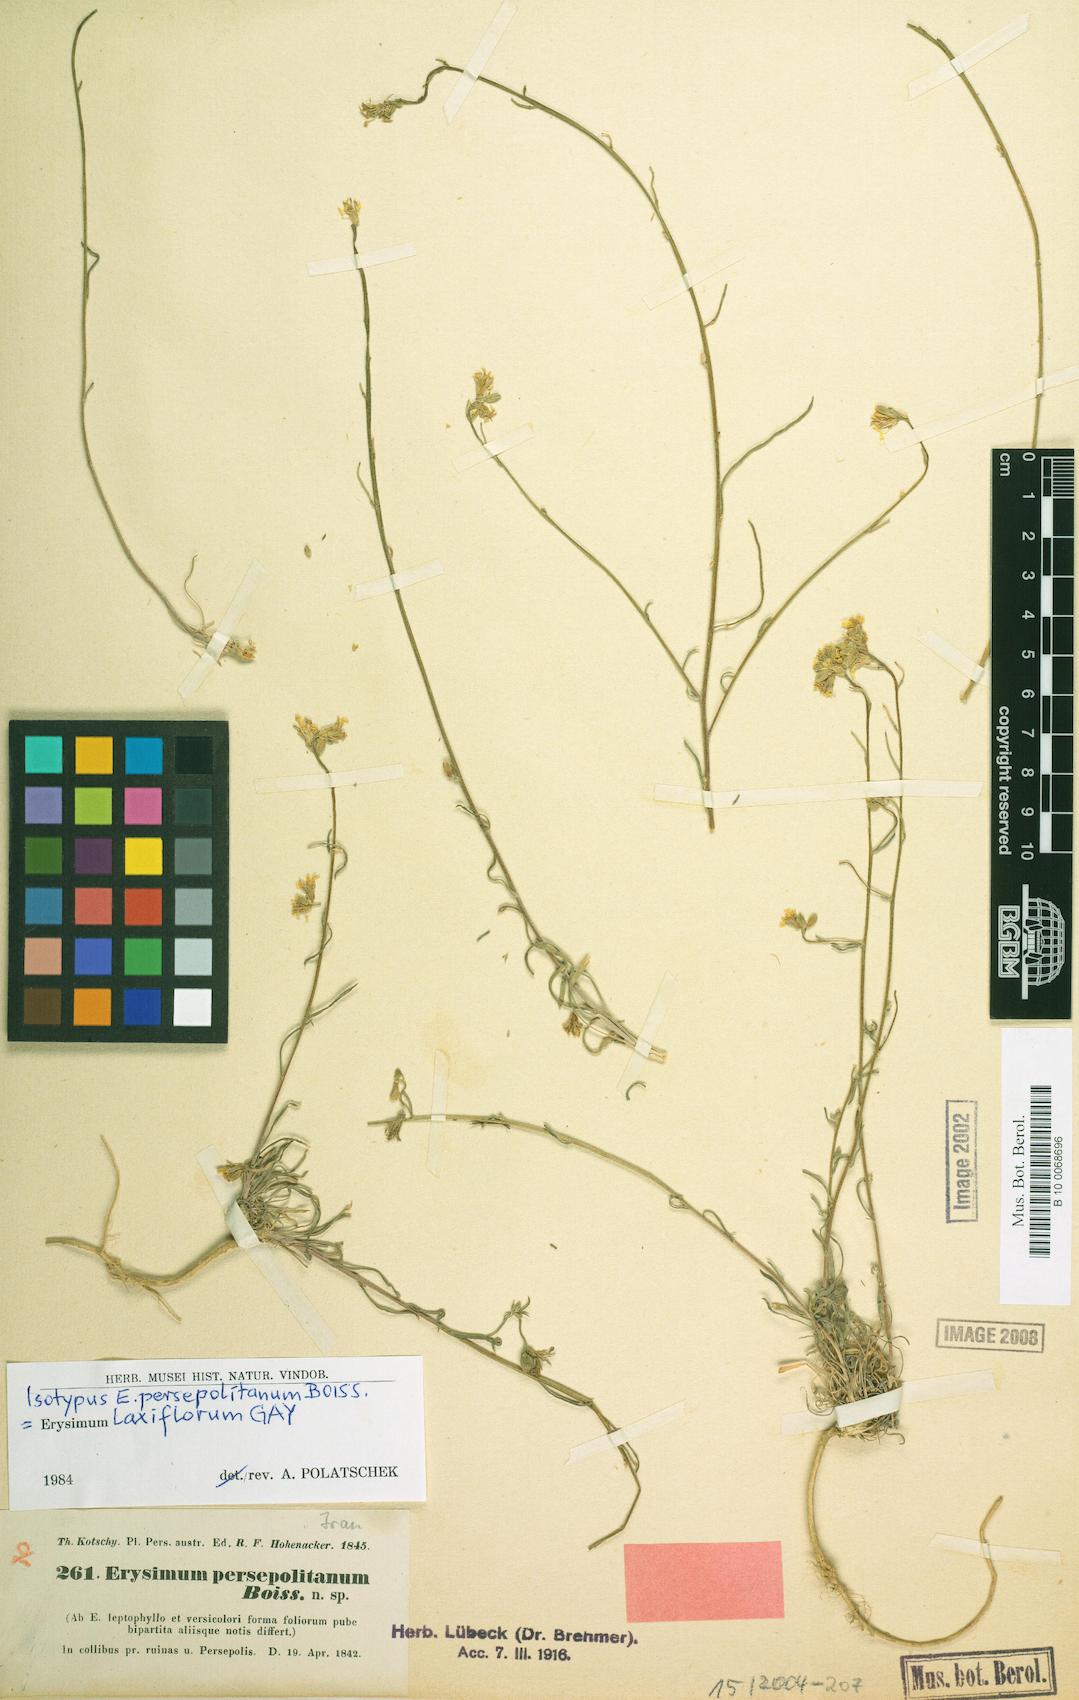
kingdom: Plantae
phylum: Tracheophyta
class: Magnoliopsida
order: Brassicales
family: Brassicaceae
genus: Erysimum
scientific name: Erysimum laxiflorum
